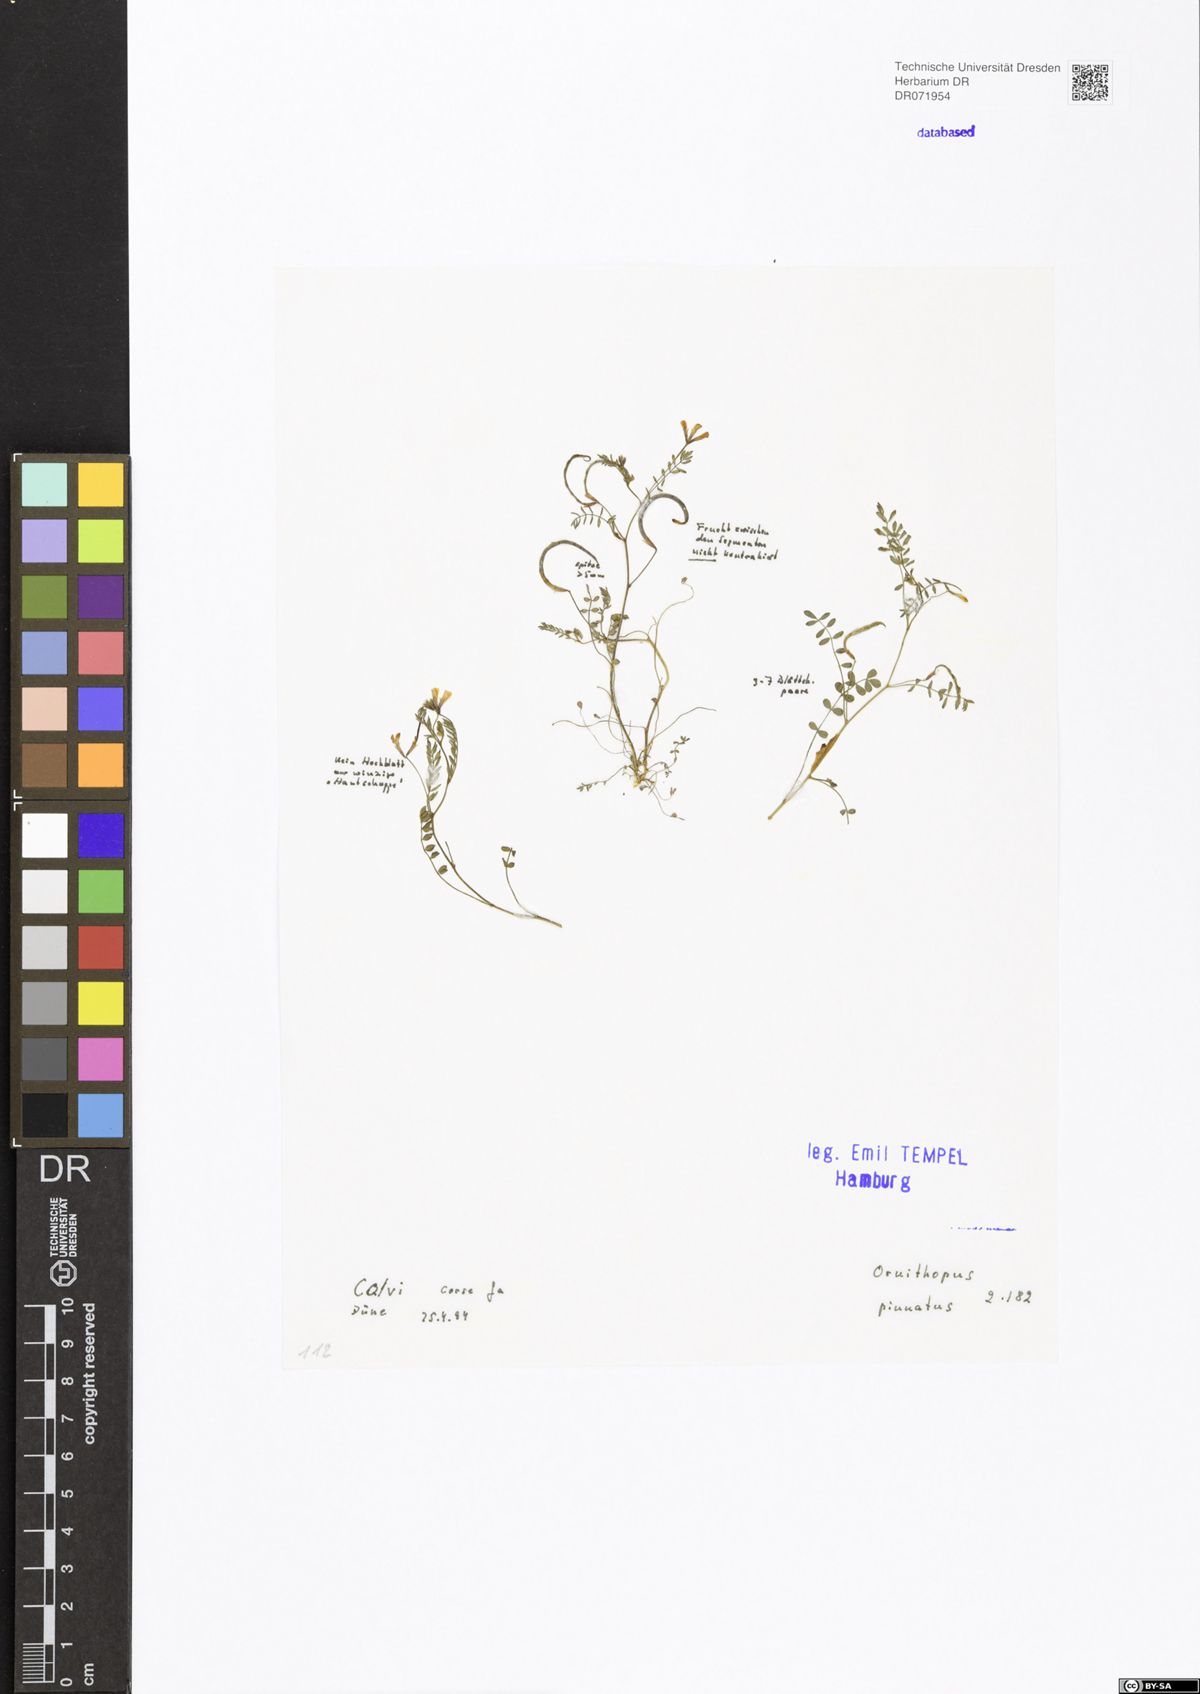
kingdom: Plantae
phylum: Tracheophyta
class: Magnoliopsida
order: Fabales
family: Fabaceae
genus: Ornithopus
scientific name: Ornithopus pinnatus
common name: Orange bird's-foot
